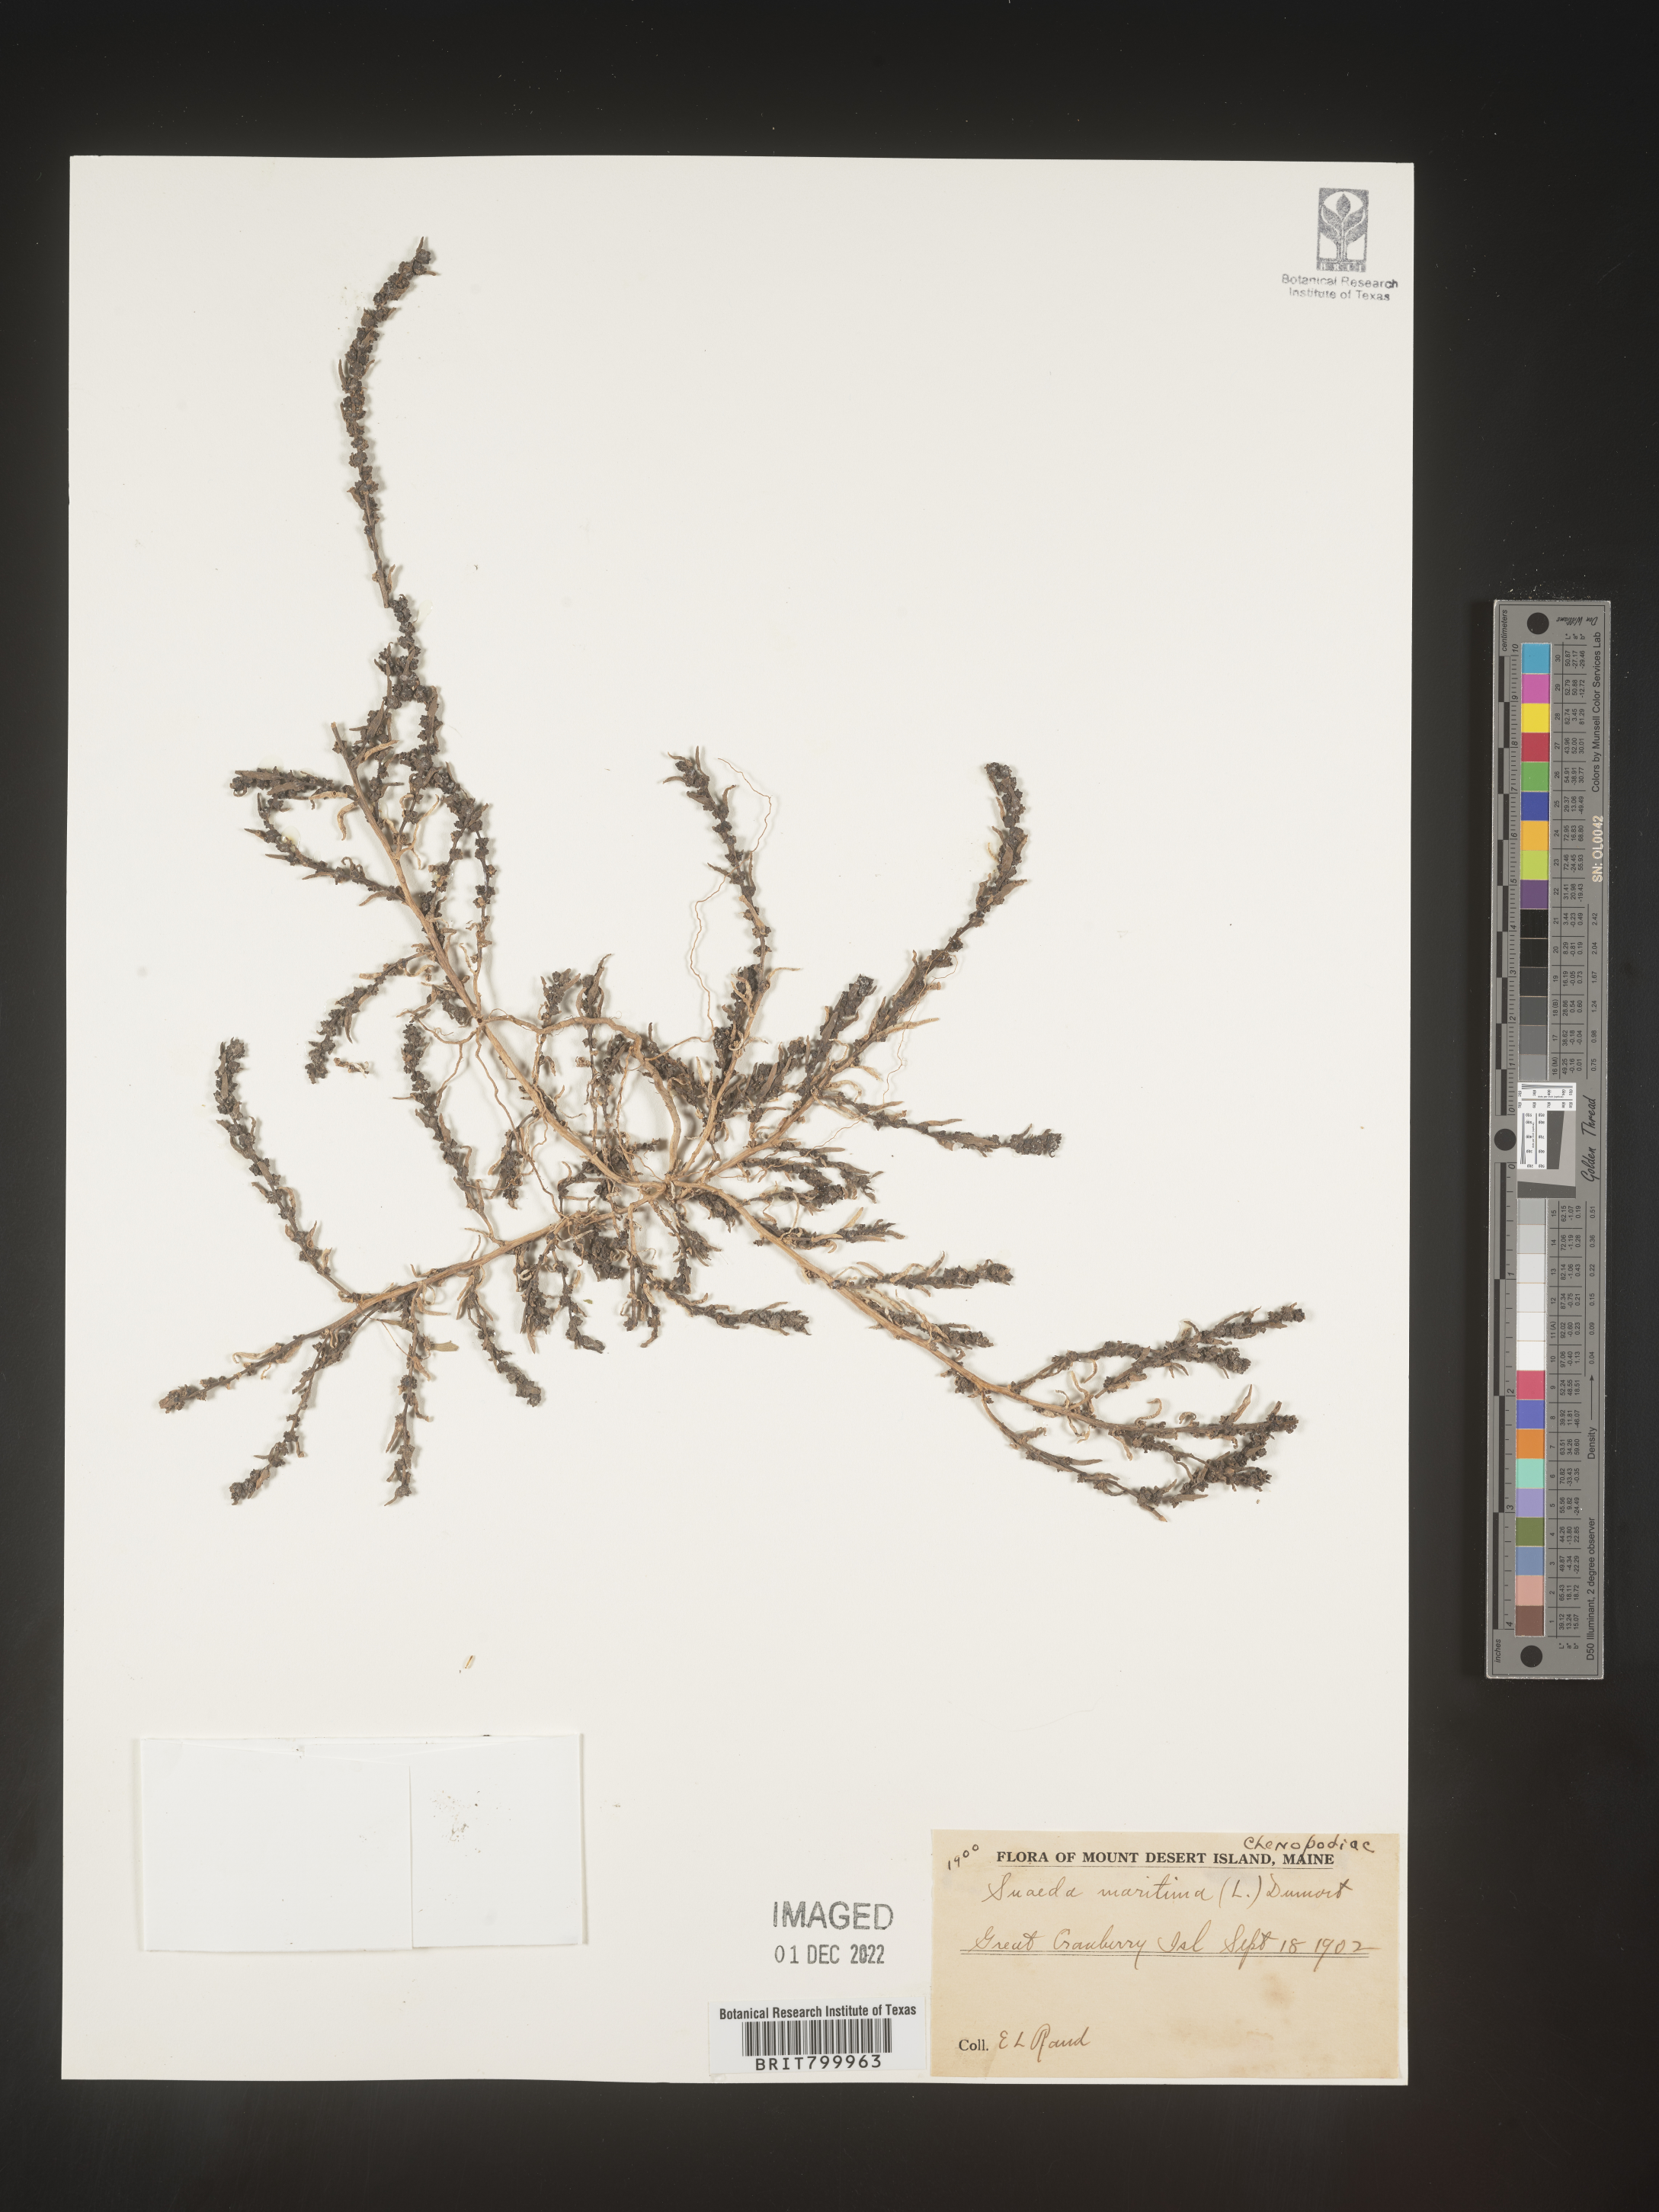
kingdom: Plantae
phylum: Tracheophyta
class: Magnoliopsida
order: Caryophyllales
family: Amaranthaceae
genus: Suaeda
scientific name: Suaeda maritima
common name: Annual sea-blite
